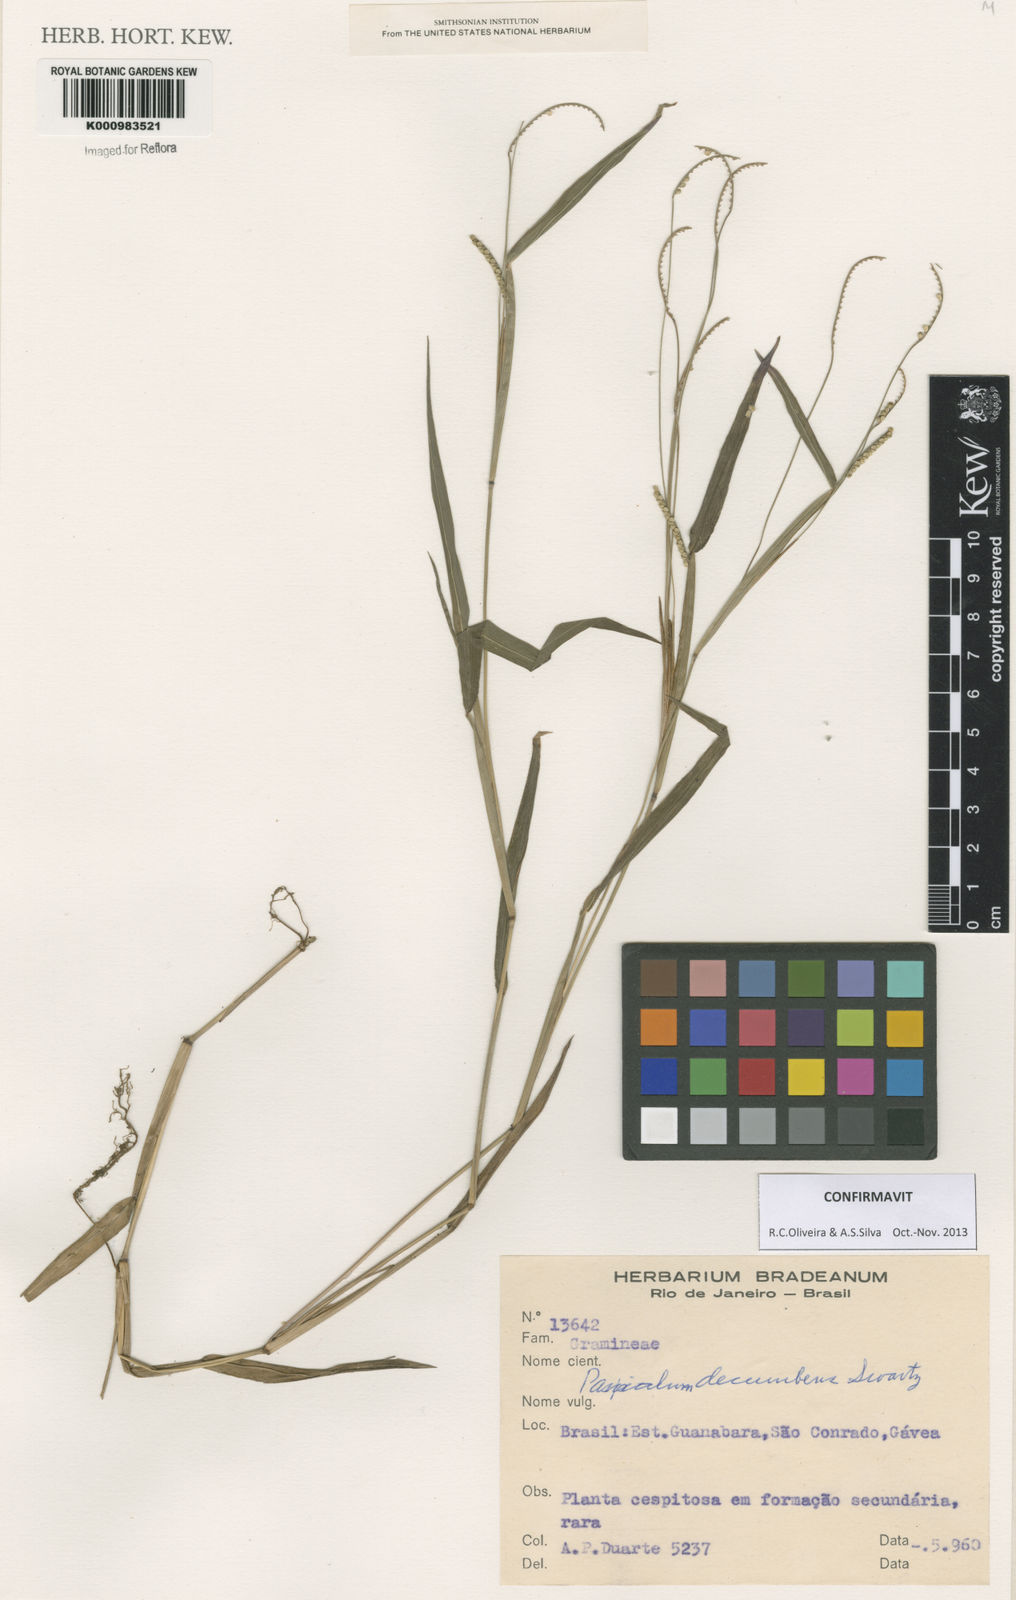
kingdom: Plantae
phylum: Tracheophyta
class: Liliopsida
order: Poales
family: Poaceae
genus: Paspalum
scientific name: Paspalum decumbens
